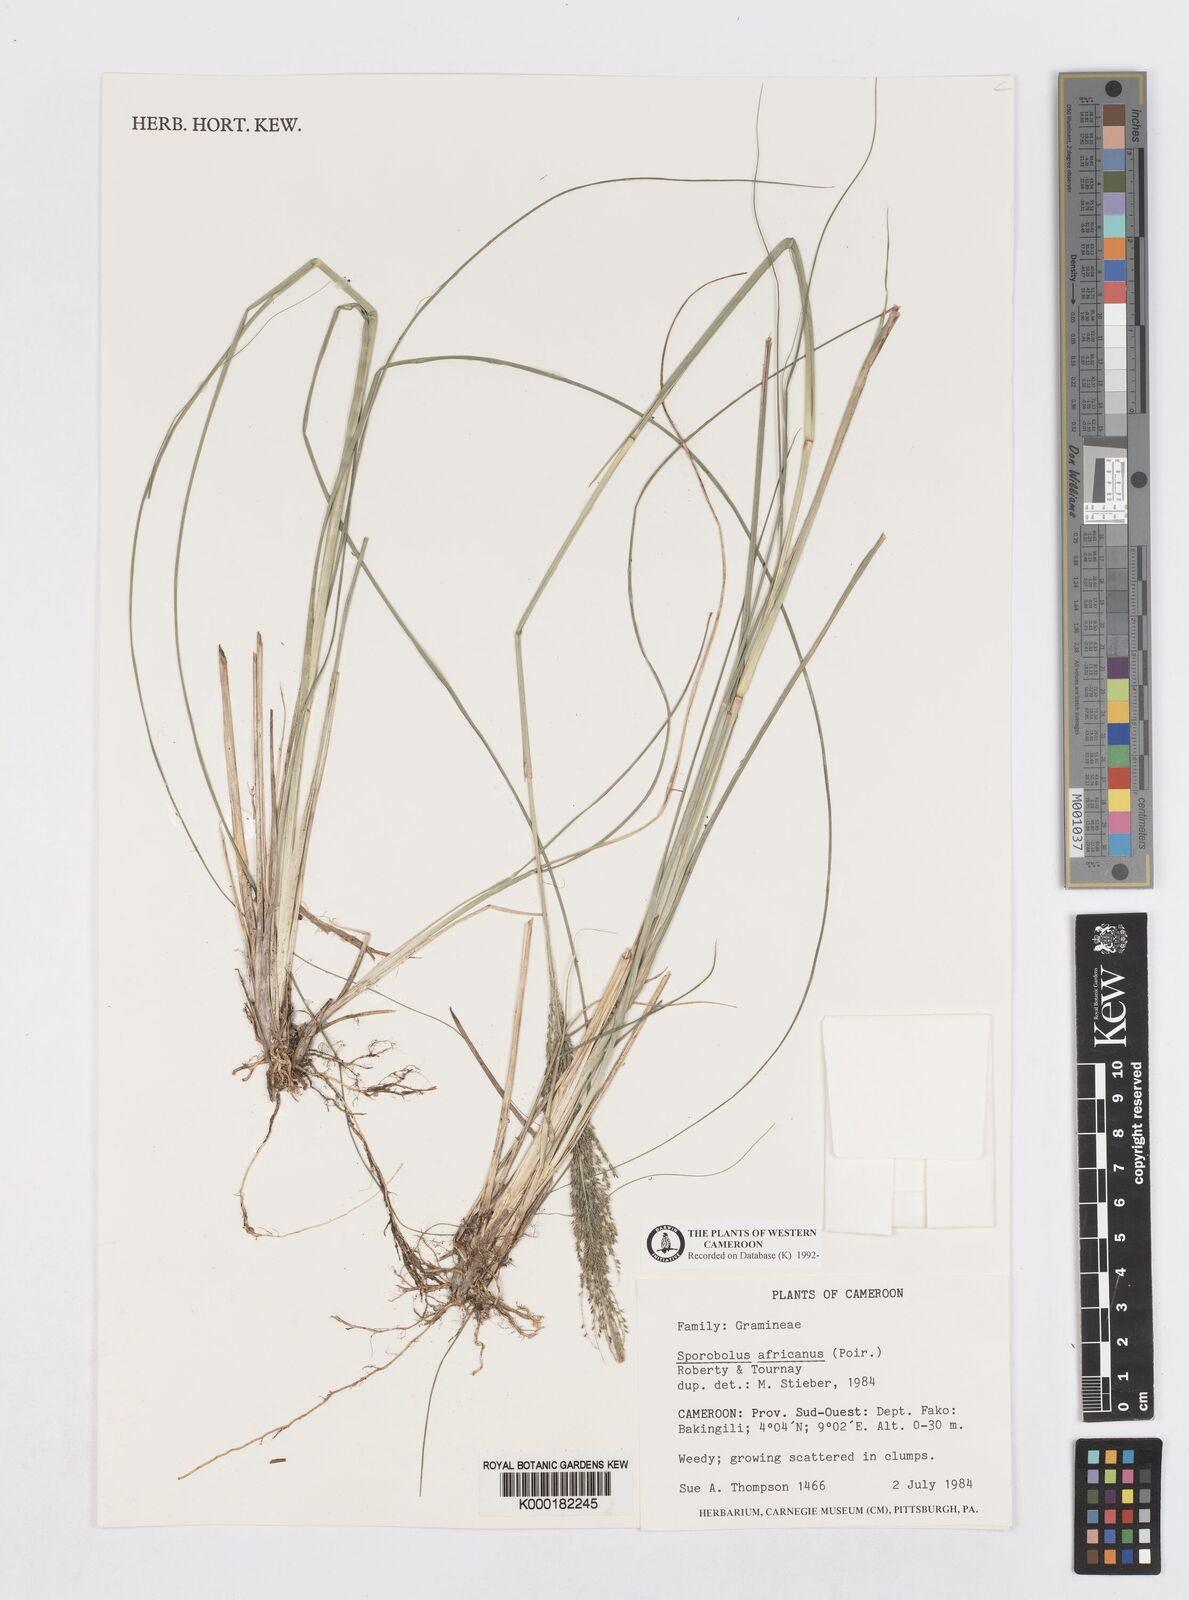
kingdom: Plantae
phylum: Tracheophyta
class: Liliopsida
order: Poales
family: Poaceae
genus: Sporobolus
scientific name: Sporobolus africanus
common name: African dropseed
